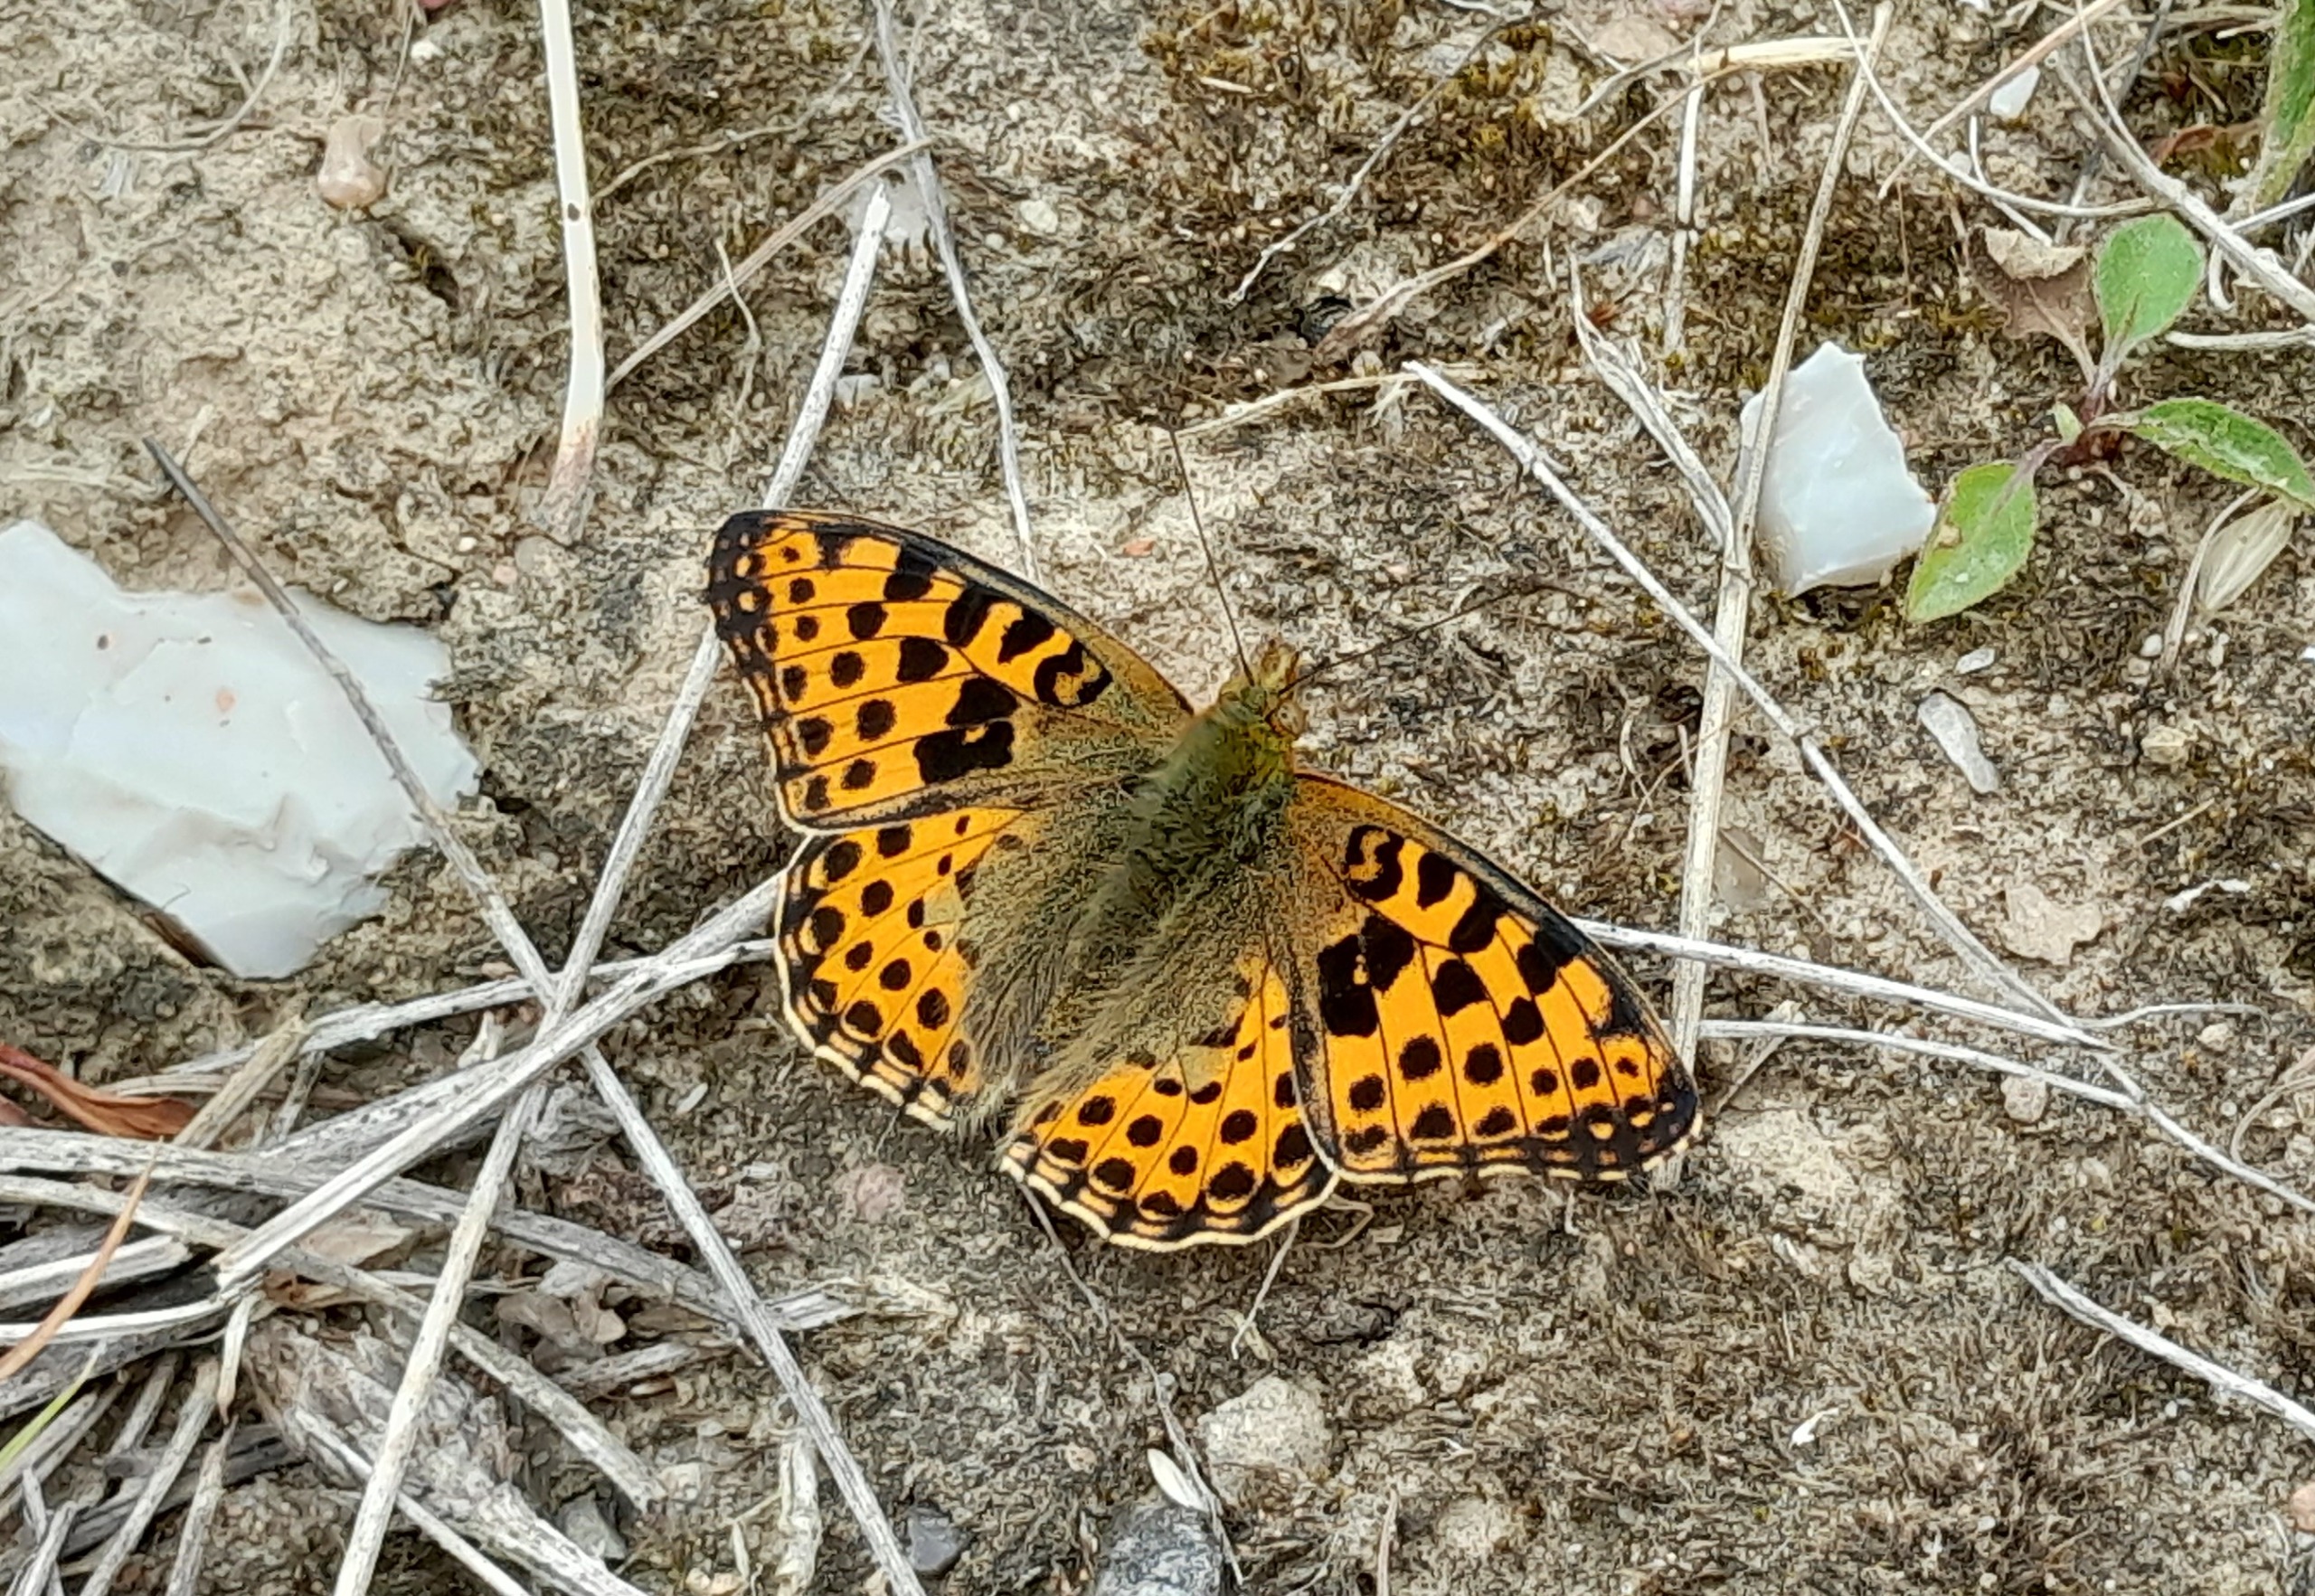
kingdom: Animalia
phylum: Arthropoda
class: Insecta
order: Lepidoptera
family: Nymphalidae
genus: Issoria
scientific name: Issoria lathonia
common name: Storplettet perlemorsommerfugl
